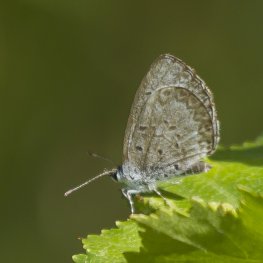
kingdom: Animalia
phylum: Arthropoda
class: Insecta
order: Lepidoptera
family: Lycaenidae
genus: Celastrina
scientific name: Celastrina lucia
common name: Northern Spring Azure
